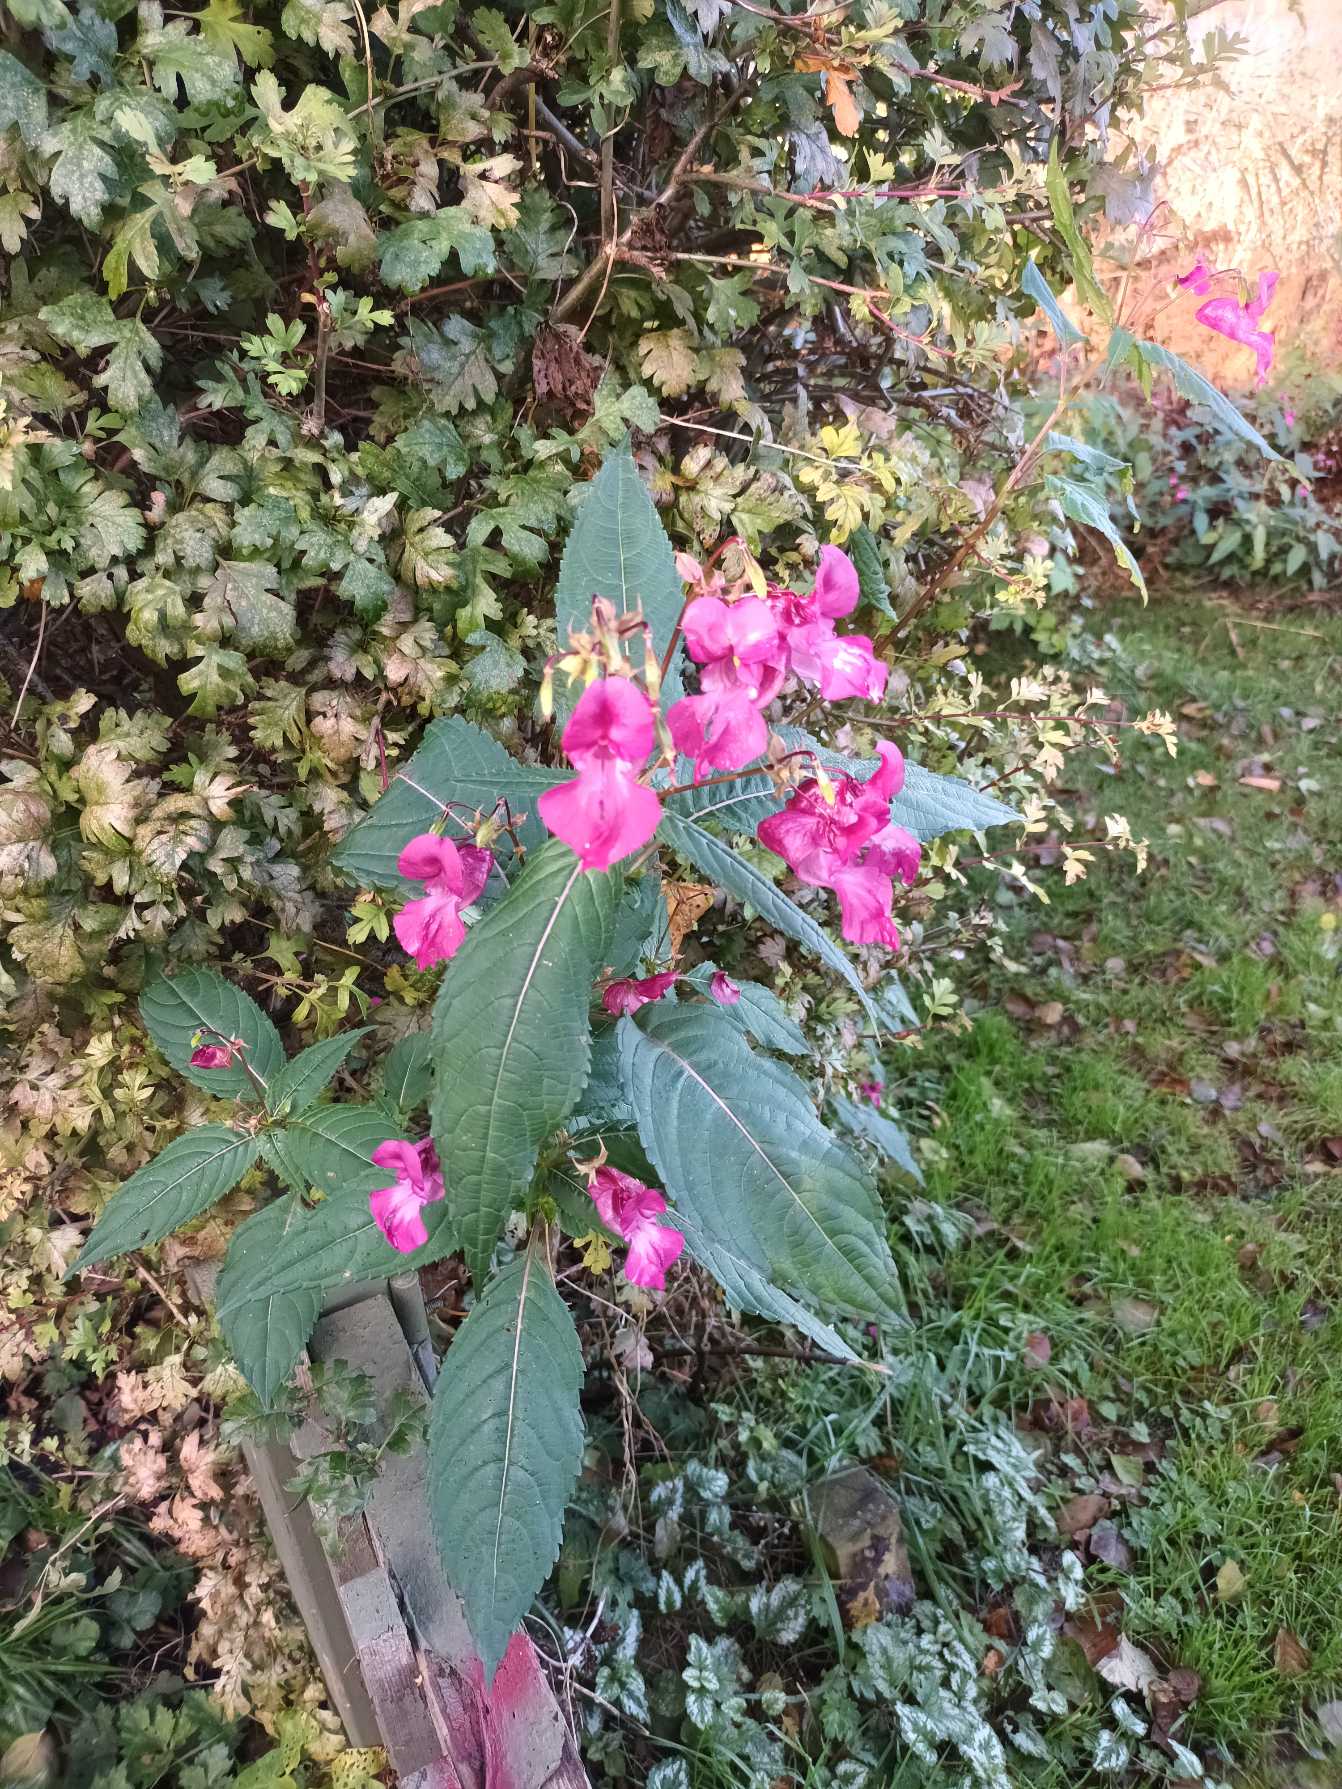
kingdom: Plantae
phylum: Tracheophyta
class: Magnoliopsida
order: Ericales
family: Balsaminaceae
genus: Impatiens
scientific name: Impatiens glandulifera
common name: Kæmpe-balsamin
